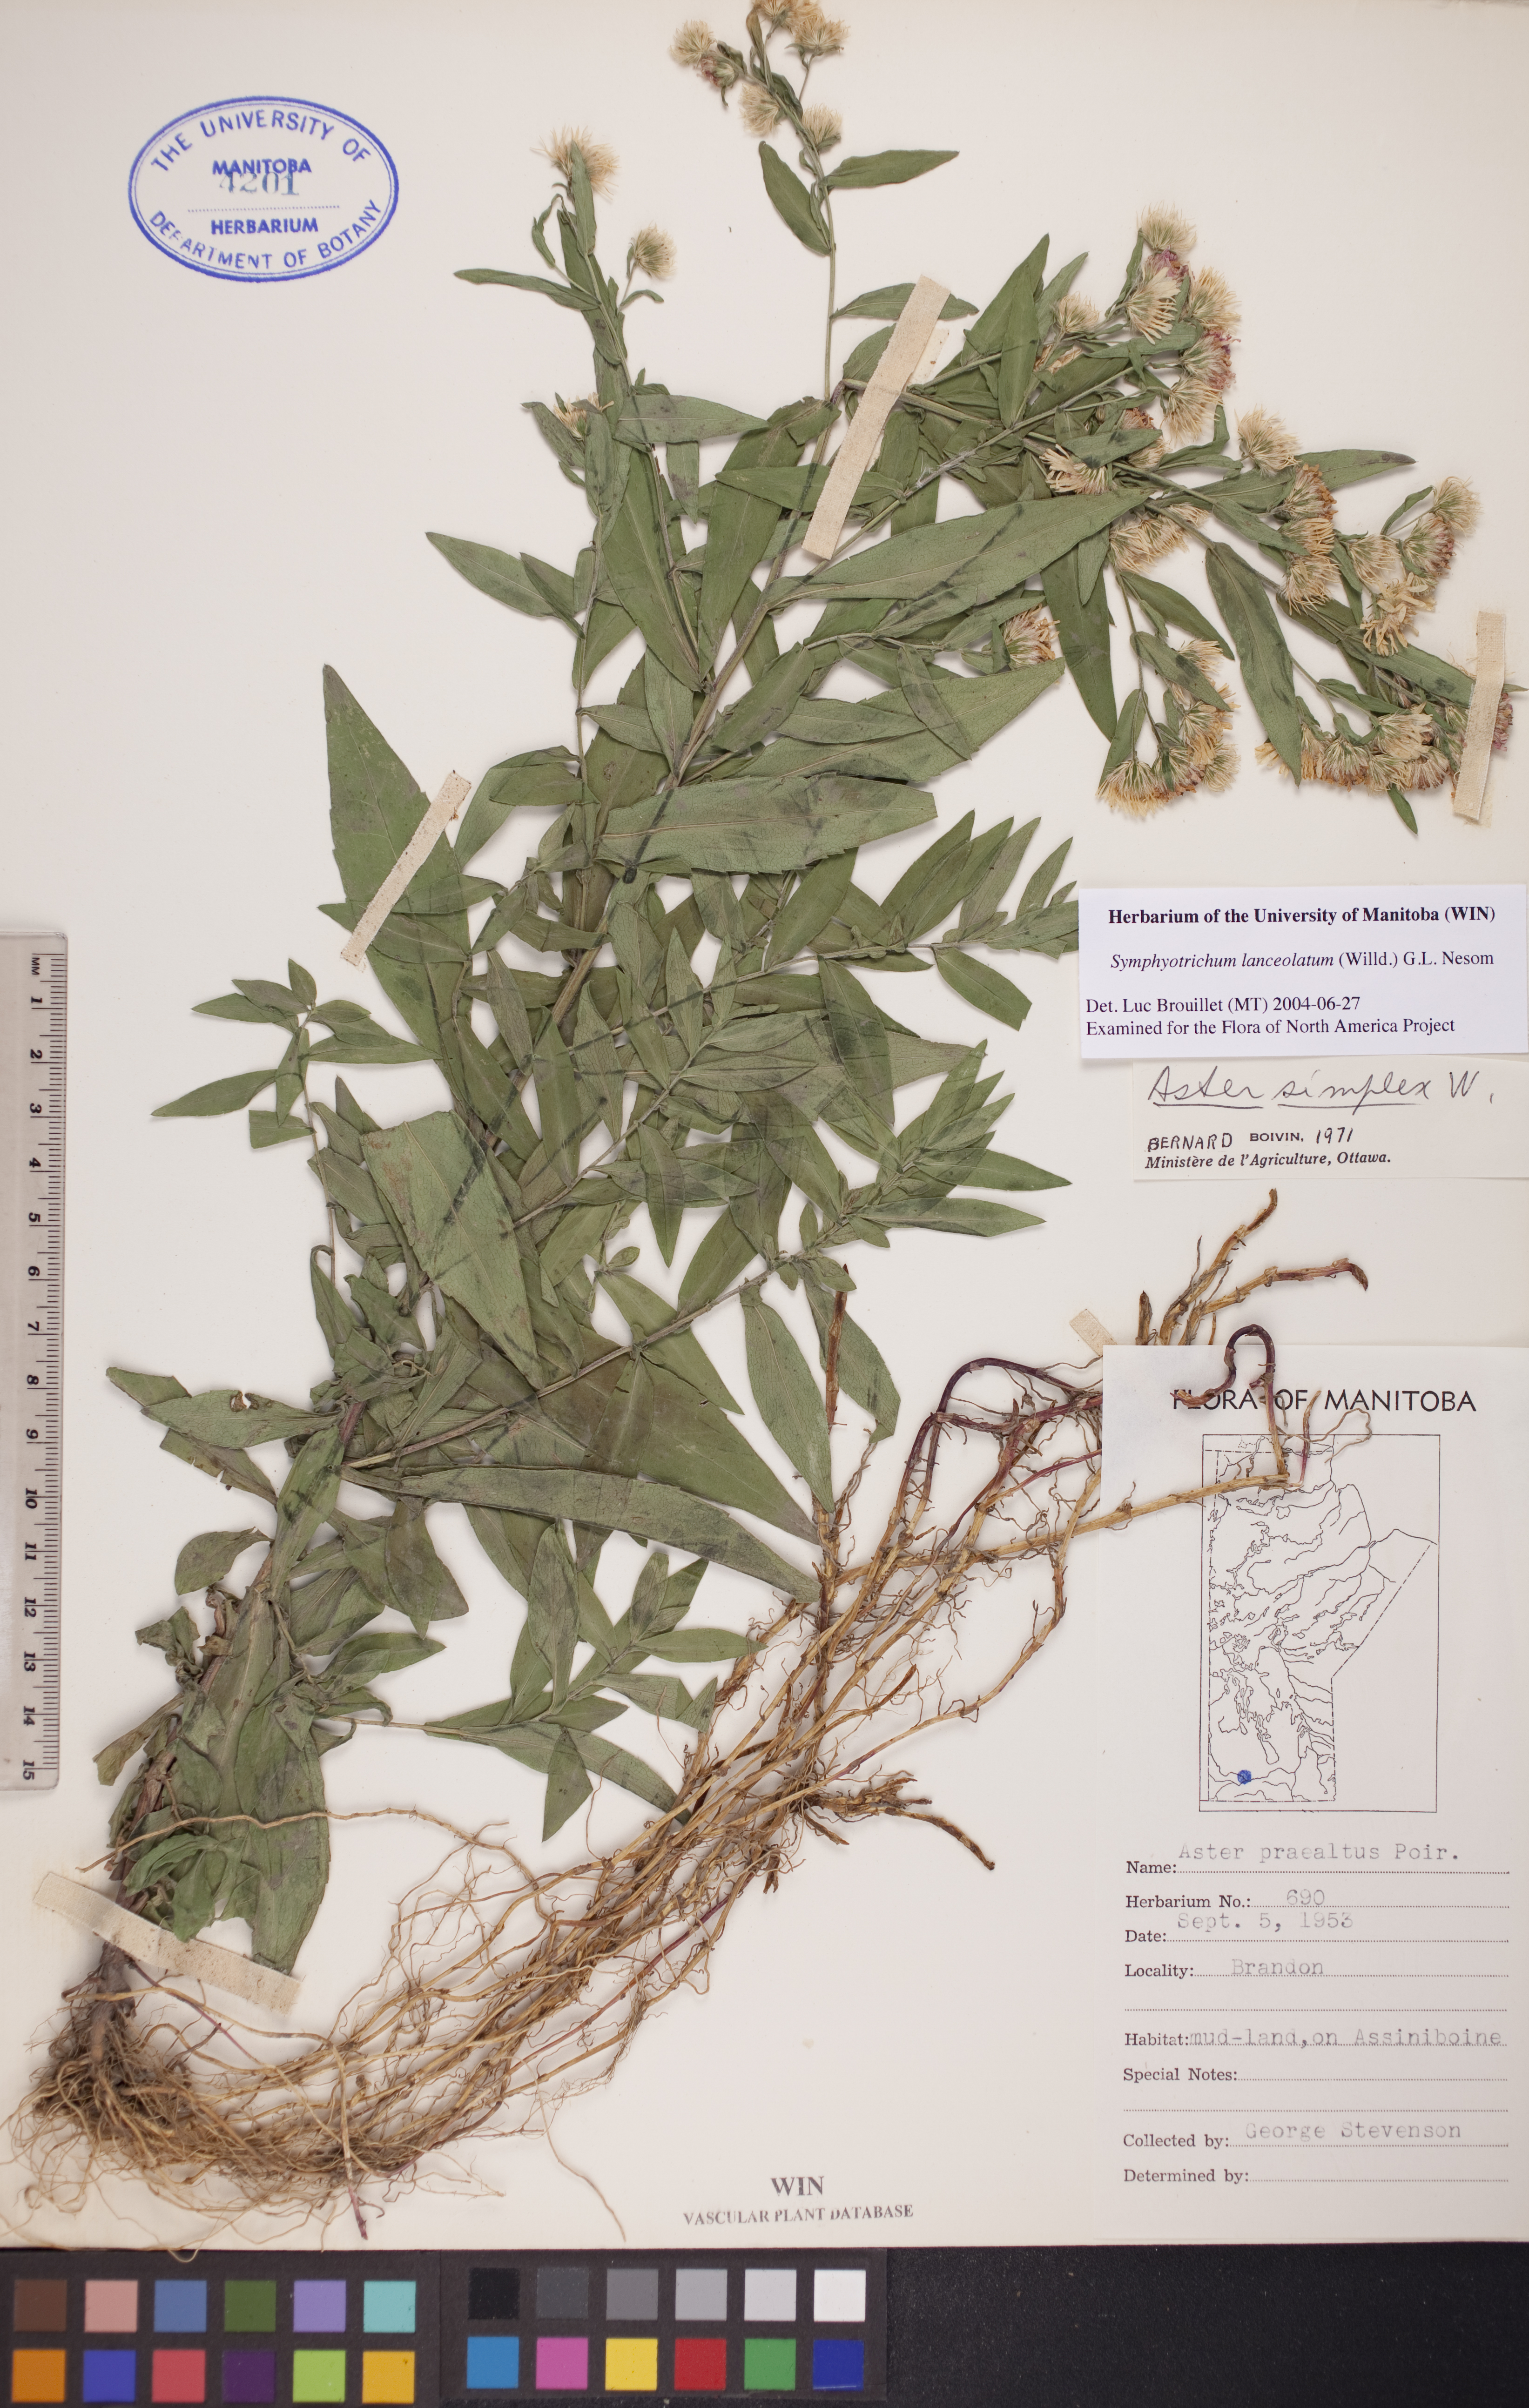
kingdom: Plantae
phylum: Tracheophyta
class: Magnoliopsida
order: Asterales
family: Asteraceae
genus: Symphyotrichum
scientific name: Symphyotrichum lanceolatum
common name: Panicled aster
